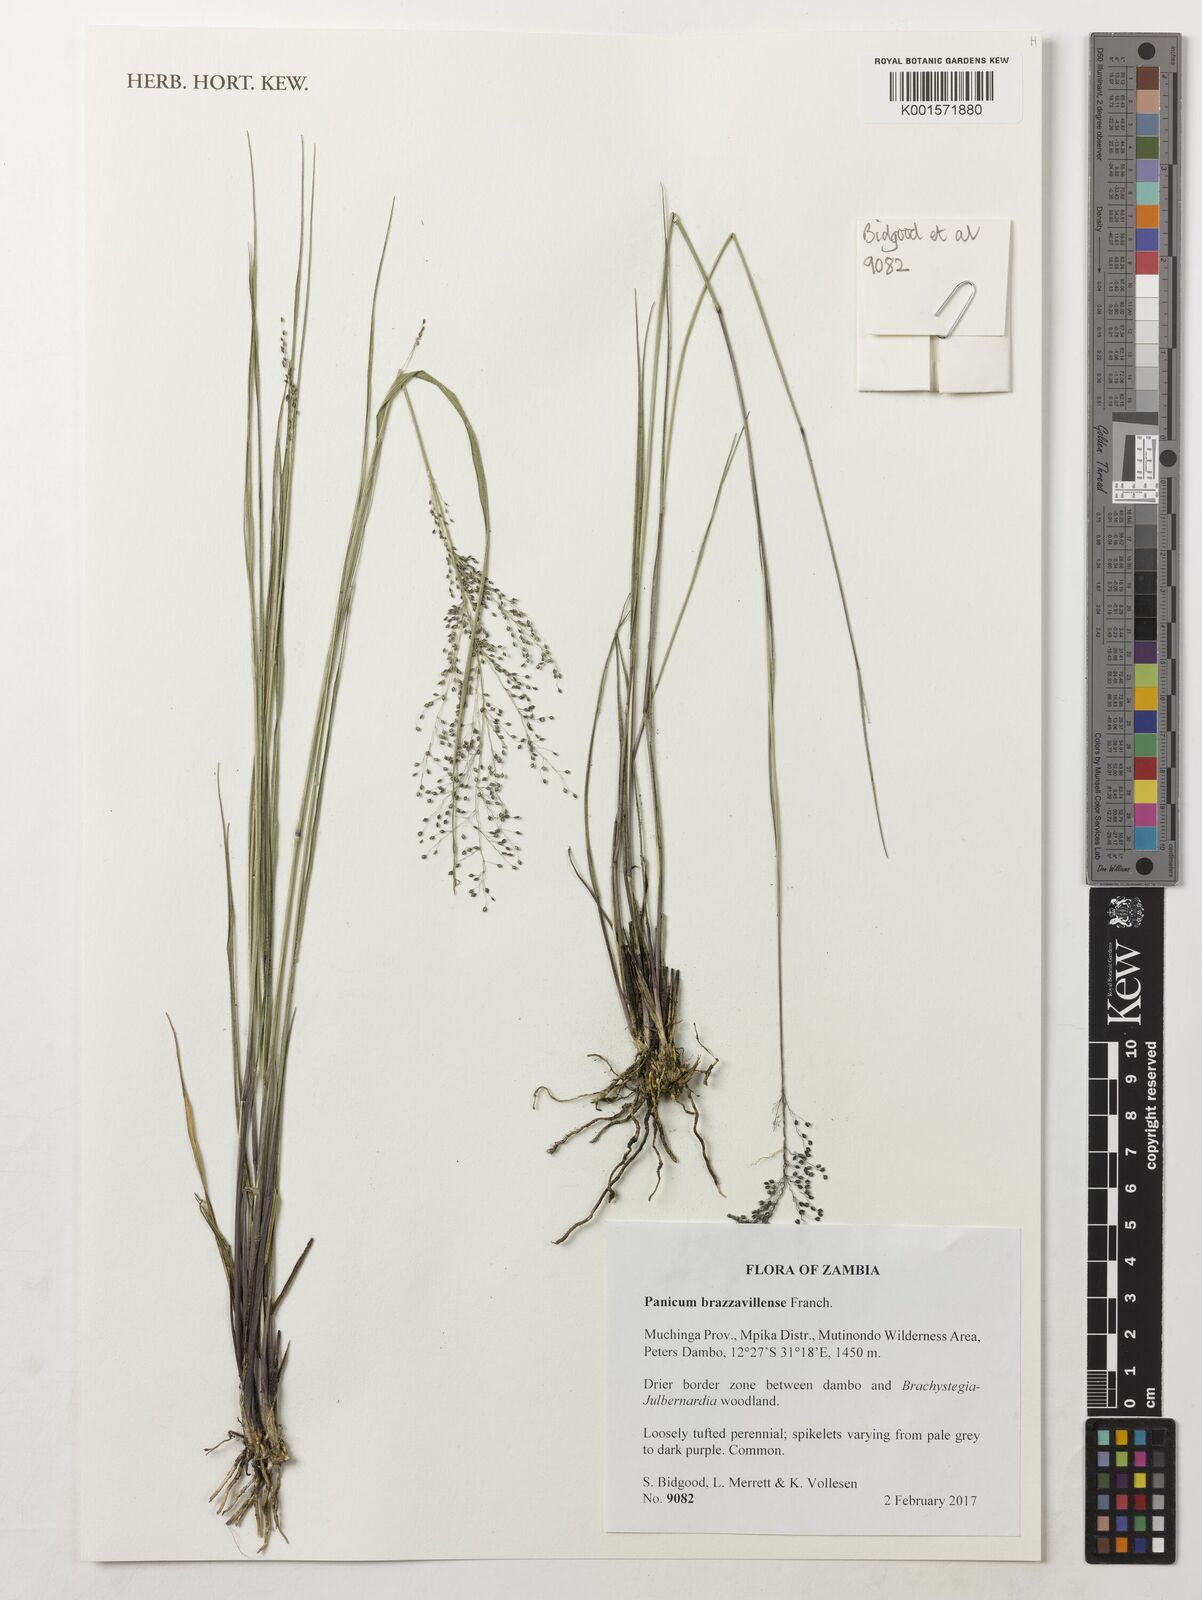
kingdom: Plantae
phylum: Tracheophyta
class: Liliopsida
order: Poales
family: Poaceae
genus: Trichanthecium
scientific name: Trichanthecium brazzavillense
